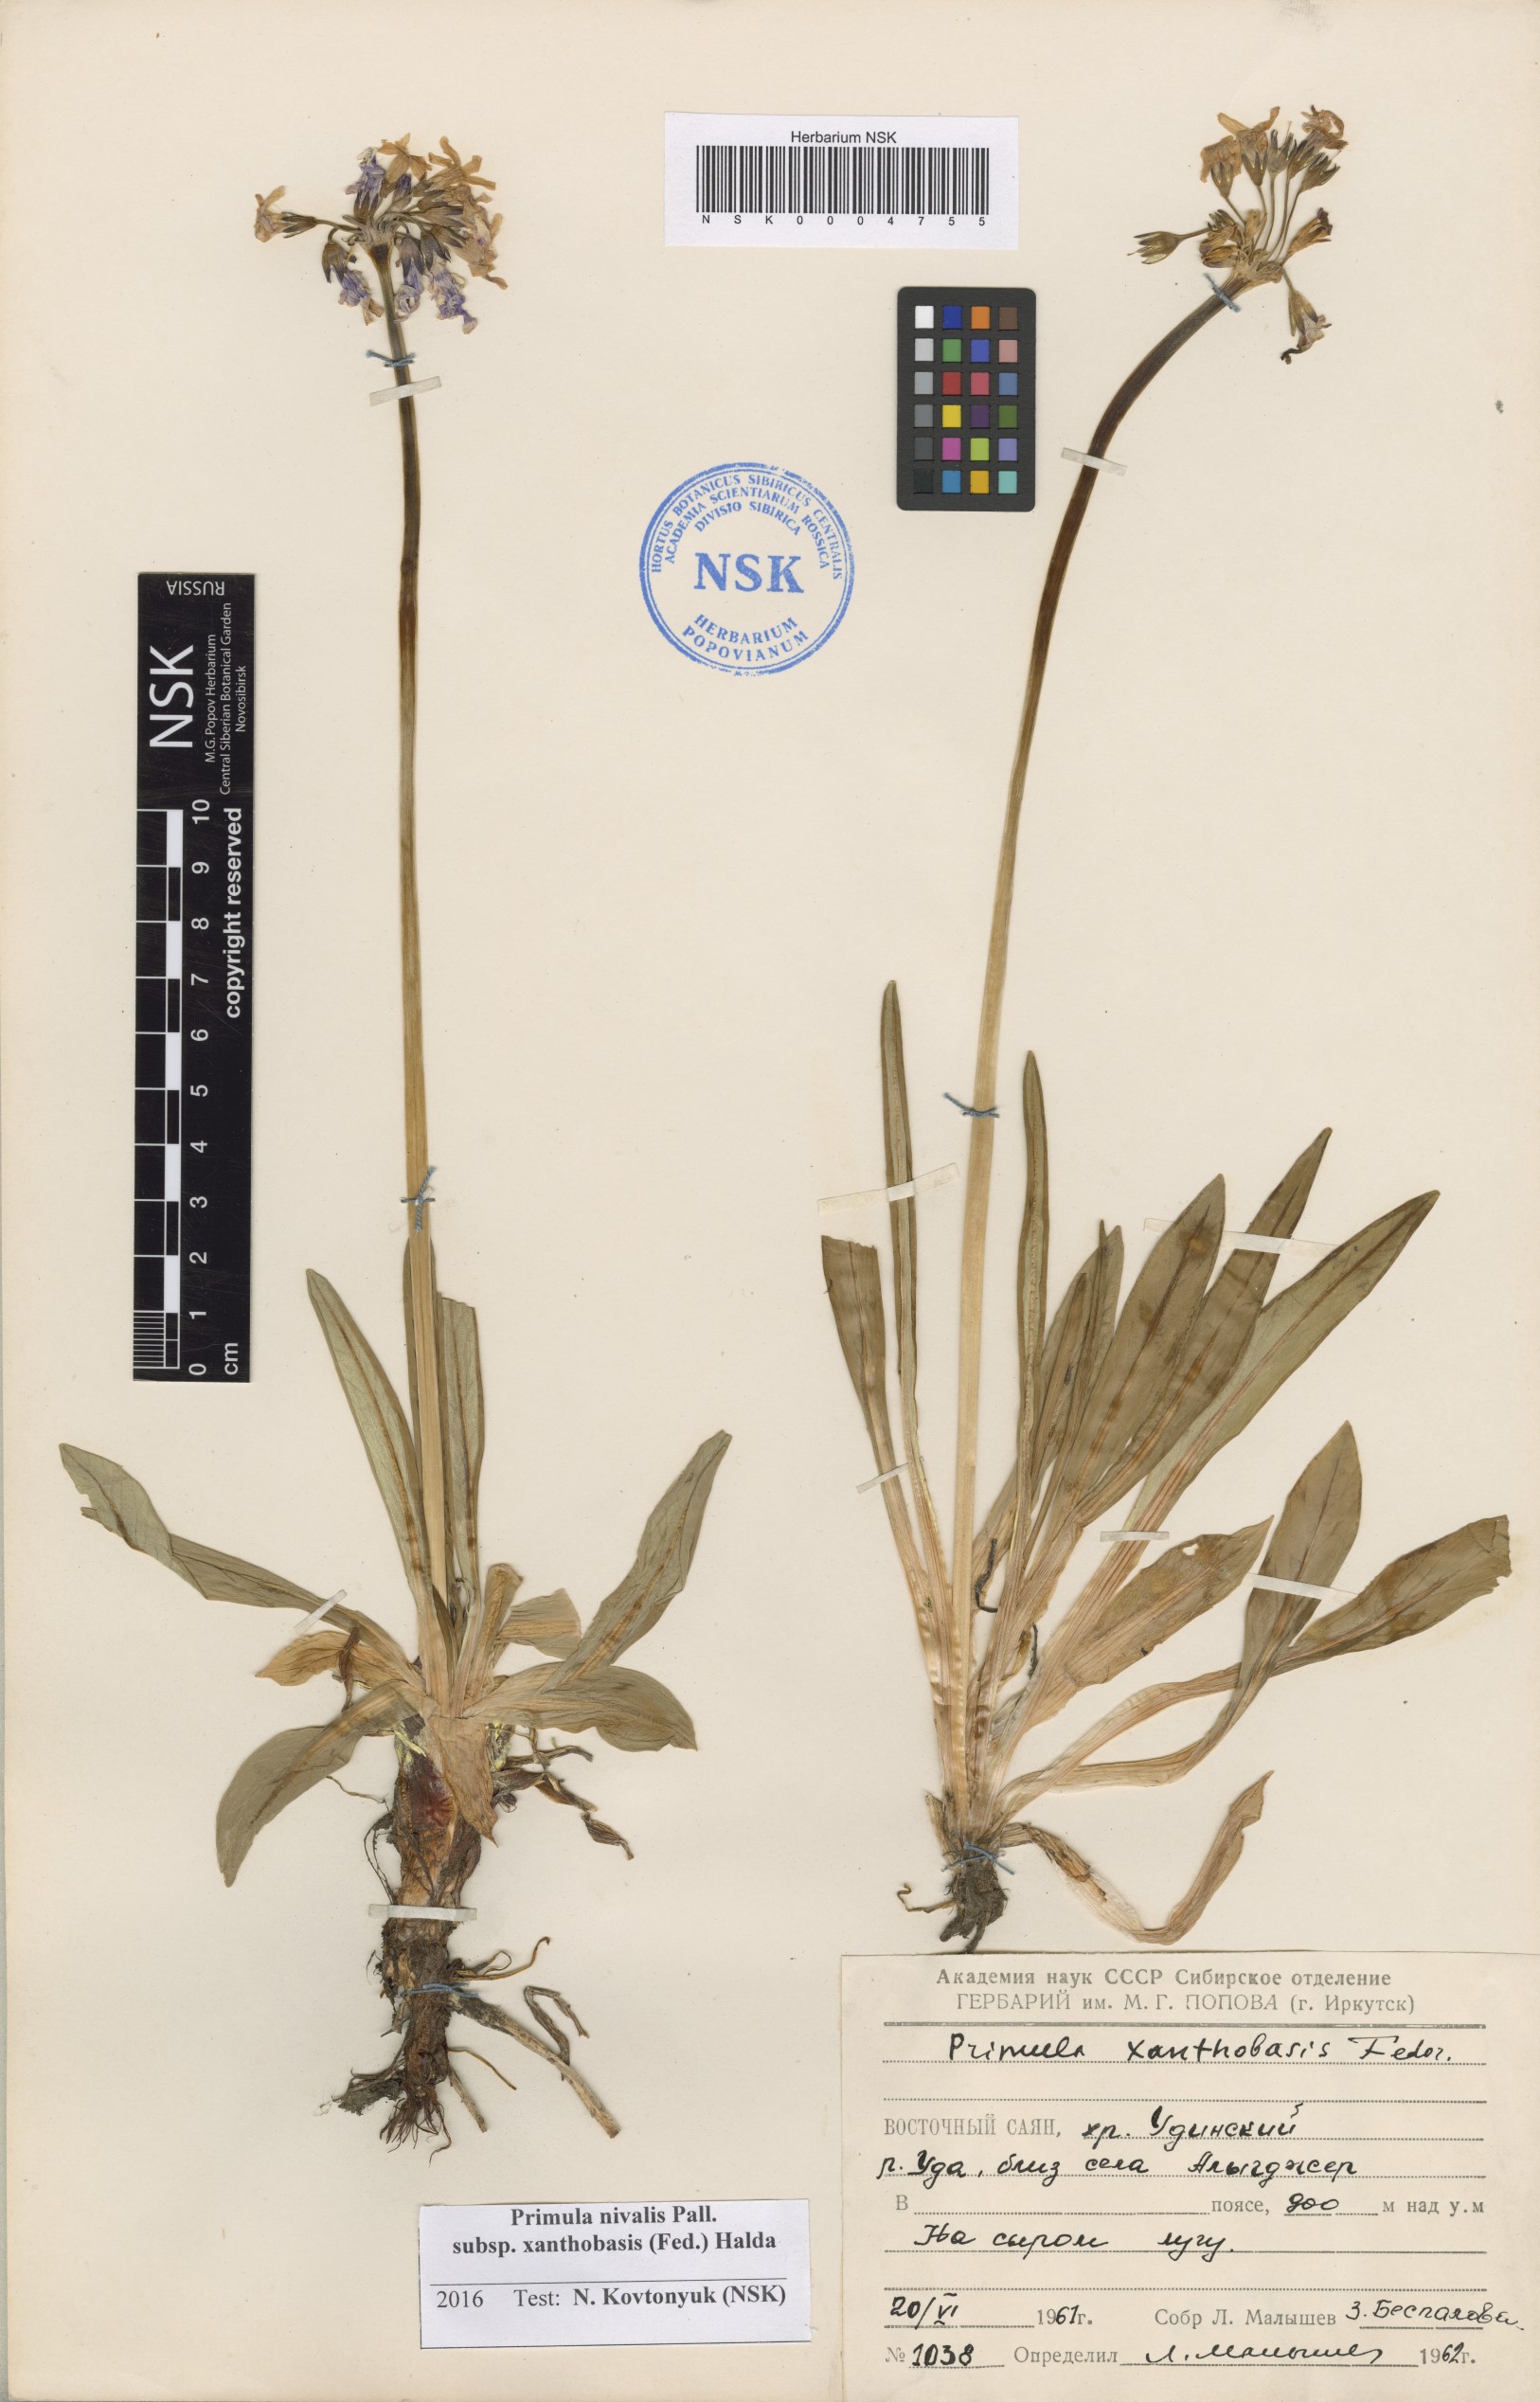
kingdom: Plantae
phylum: Tracheophyta
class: Magnoliopsida
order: Ericales
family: Primulaceae
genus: Primula
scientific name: Primula nivalis
